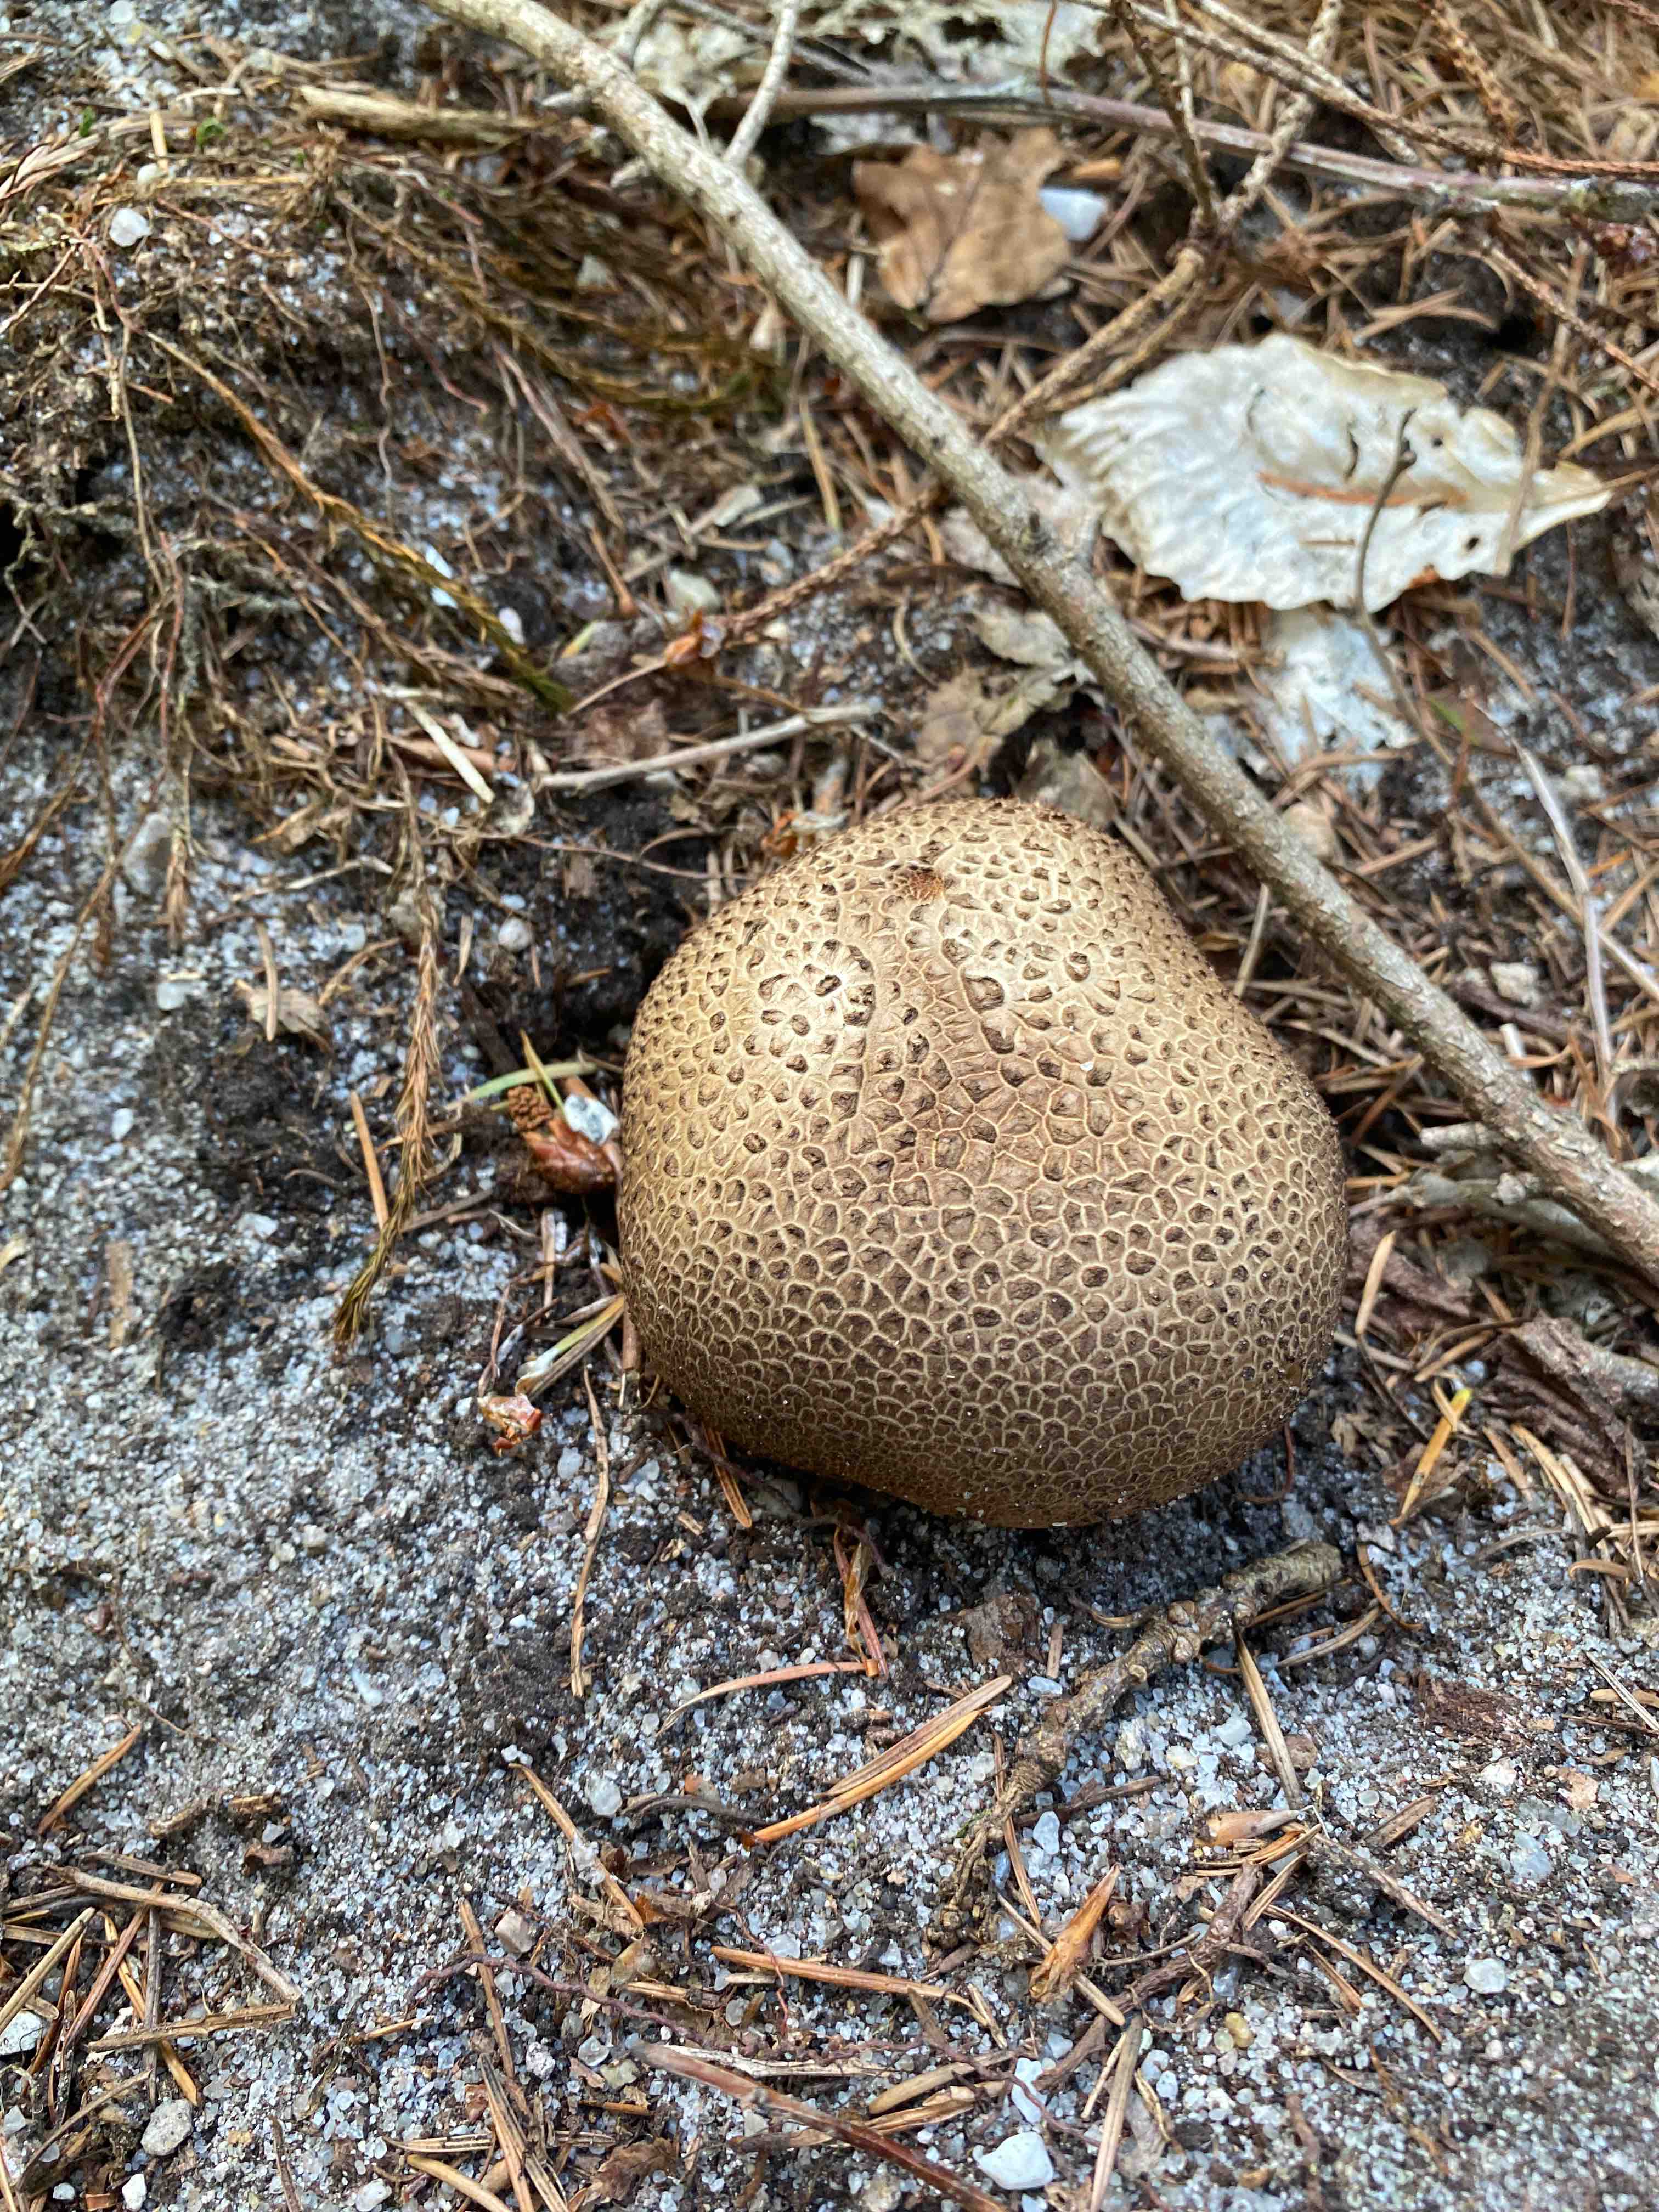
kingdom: Fungi
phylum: Basidiomycota
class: Agaricomycetes
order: Boletales
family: Sclerodermataceae
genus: Scleroderma
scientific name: Scleroderma citrinum
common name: almindelig bruskbold
